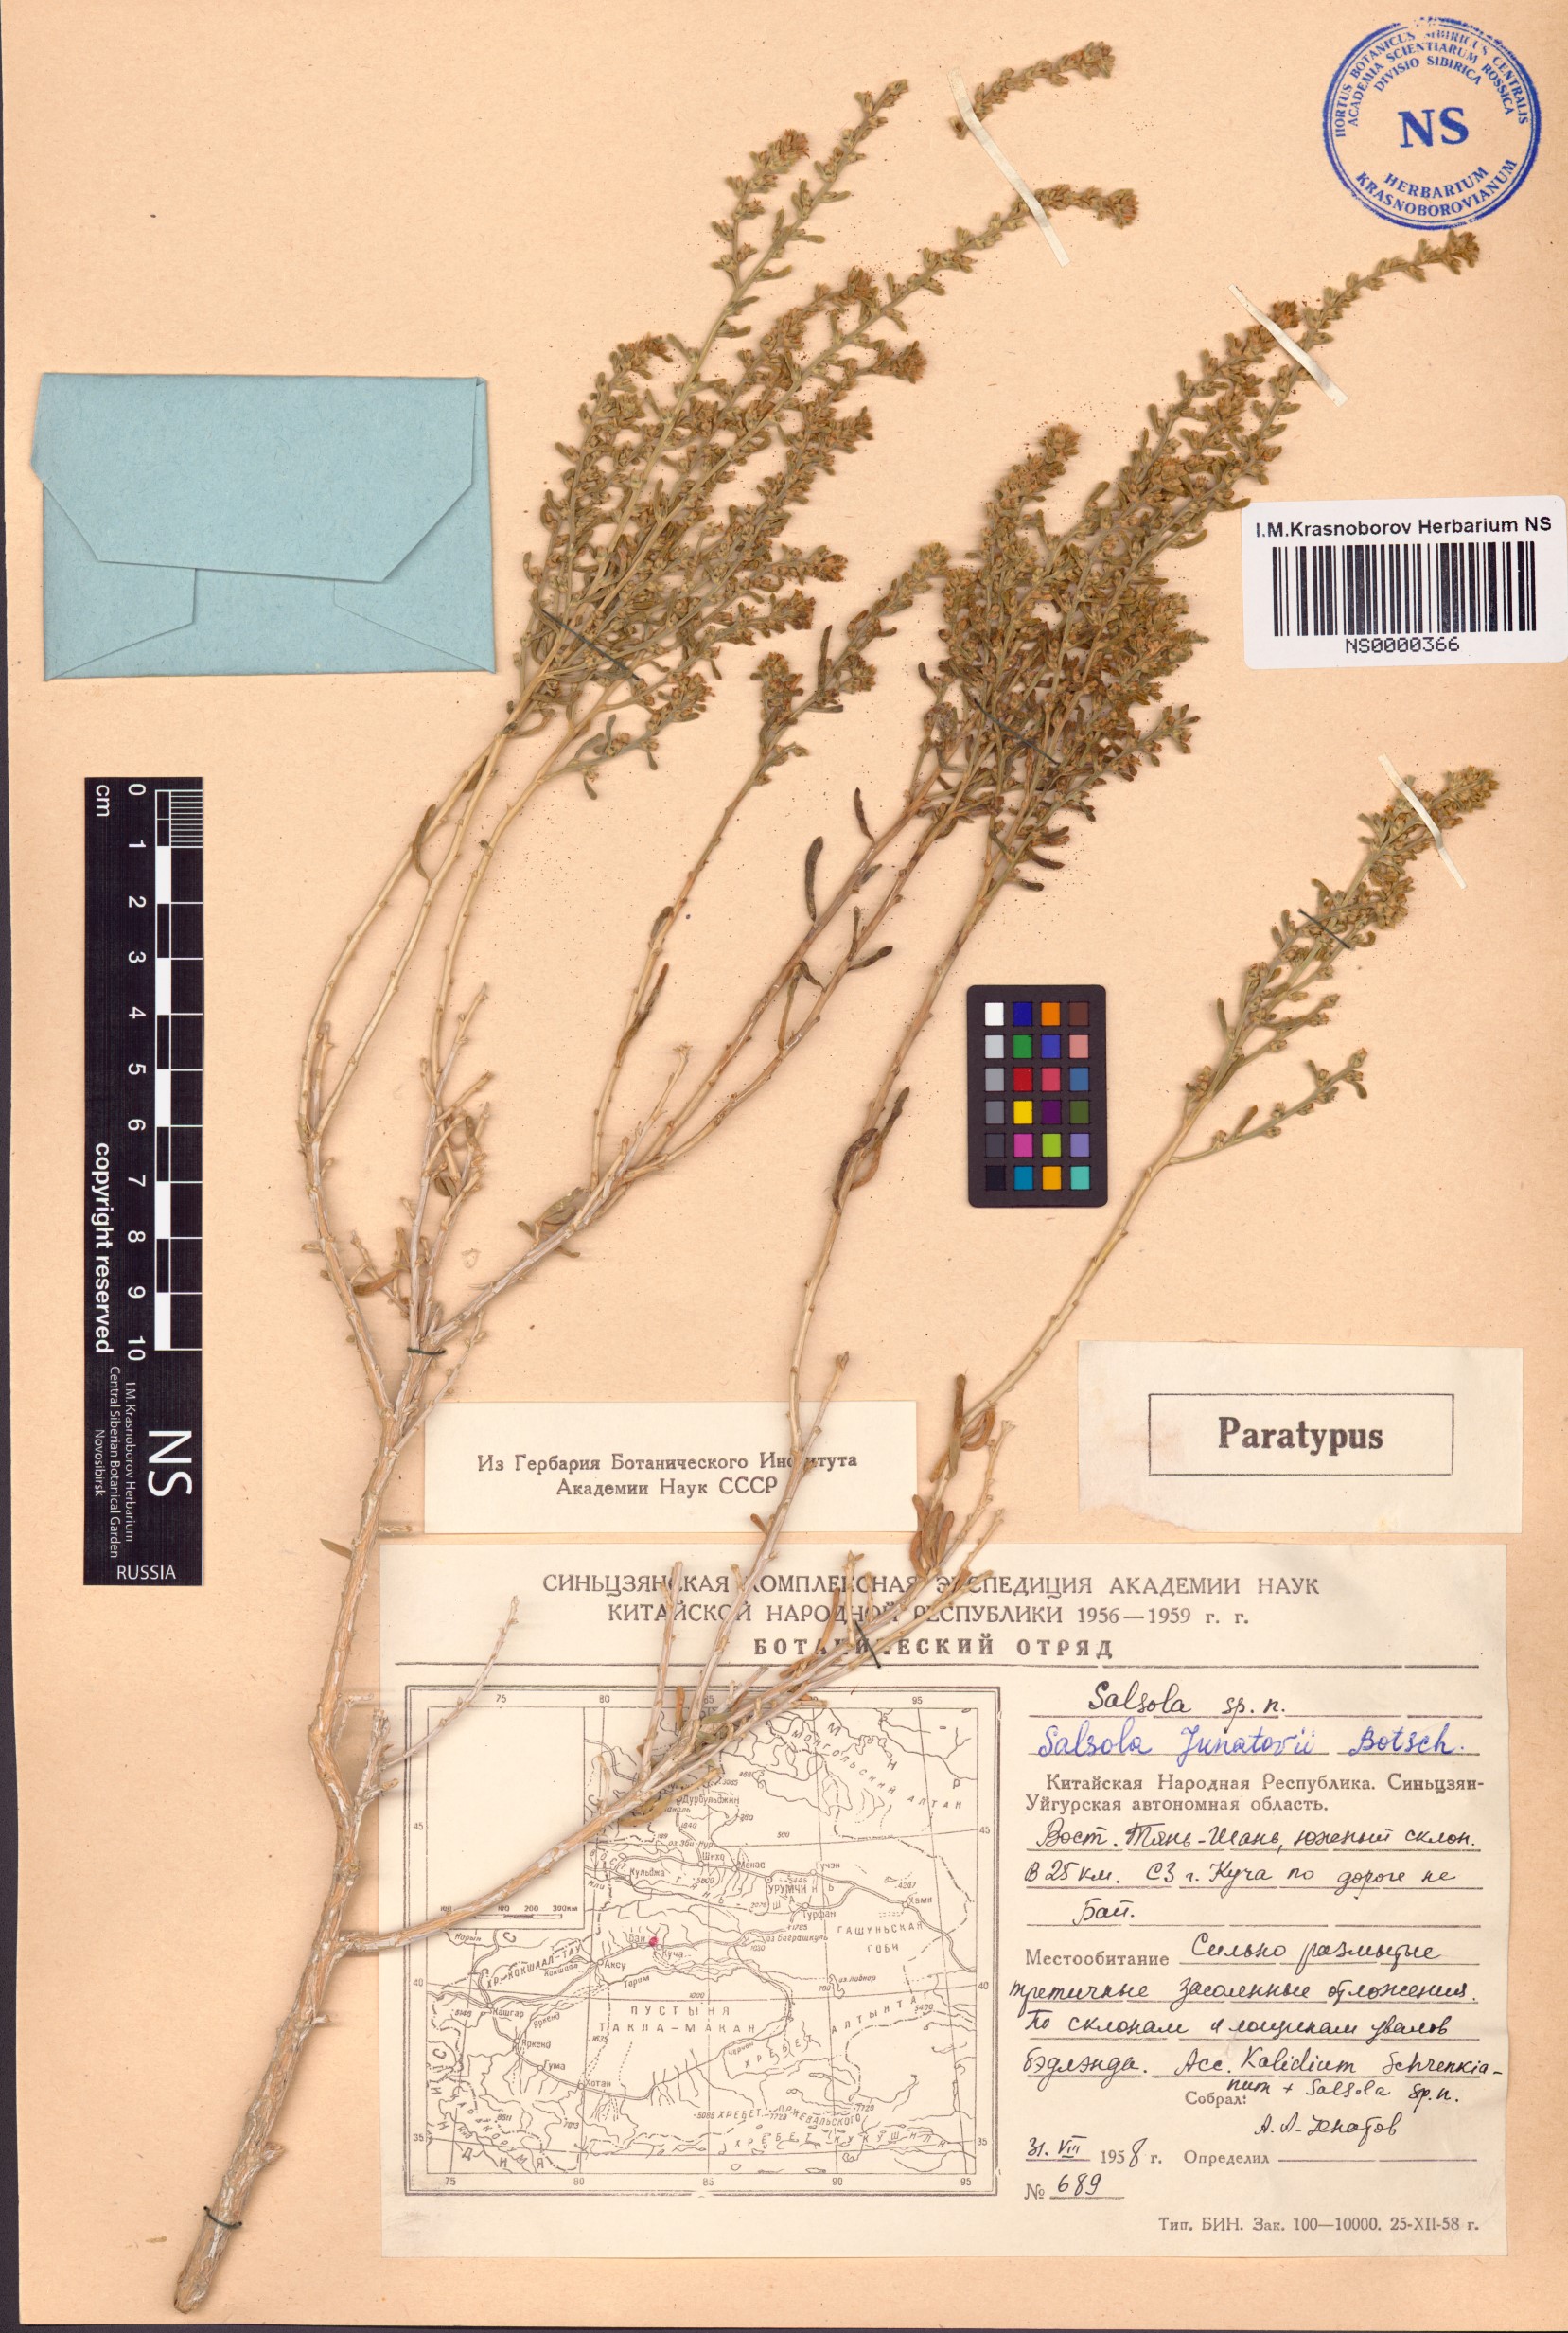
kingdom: Plantae
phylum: Tracheophyta
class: Magnoliopsida
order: Caryophyllales
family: Amaranthaceae
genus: Salsola
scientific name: Salsola junatovii
